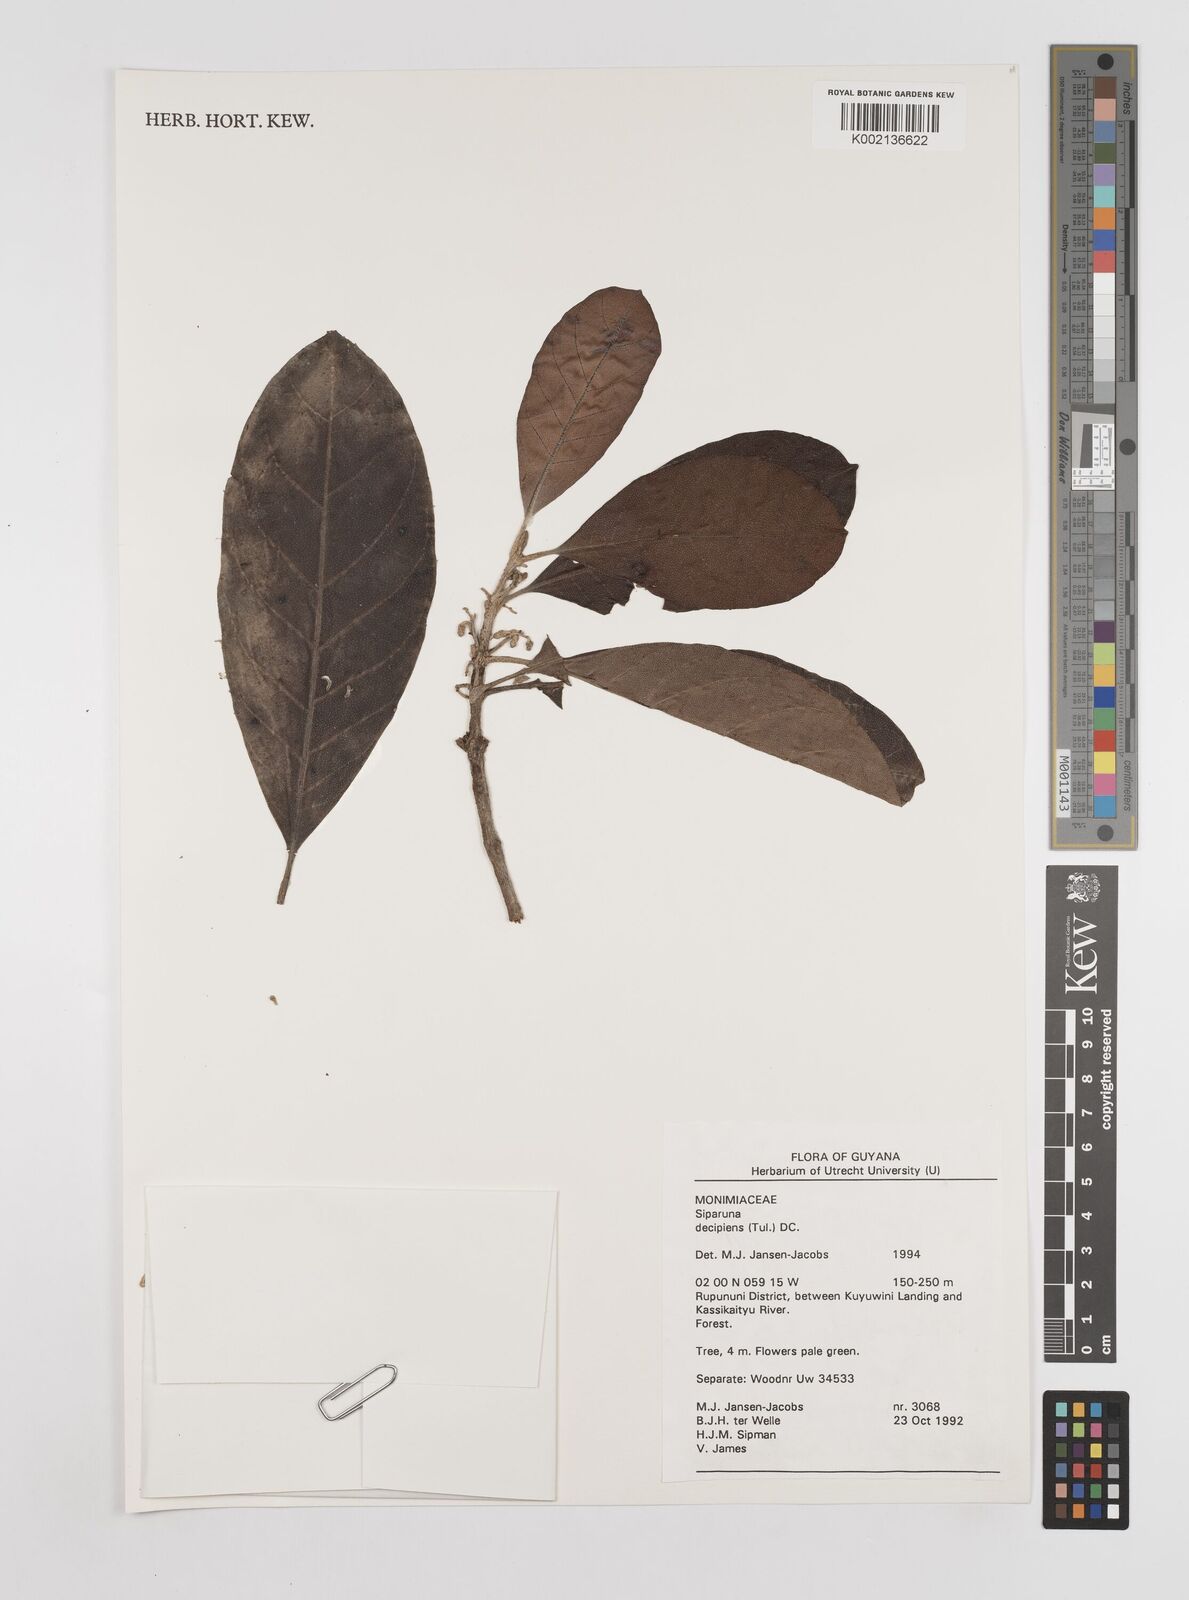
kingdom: Plantae
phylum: Tracheophyta
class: Magnoliopsida
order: Laurales
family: Siparunaceae
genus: Siparuna
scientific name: Siparuna decipiens
